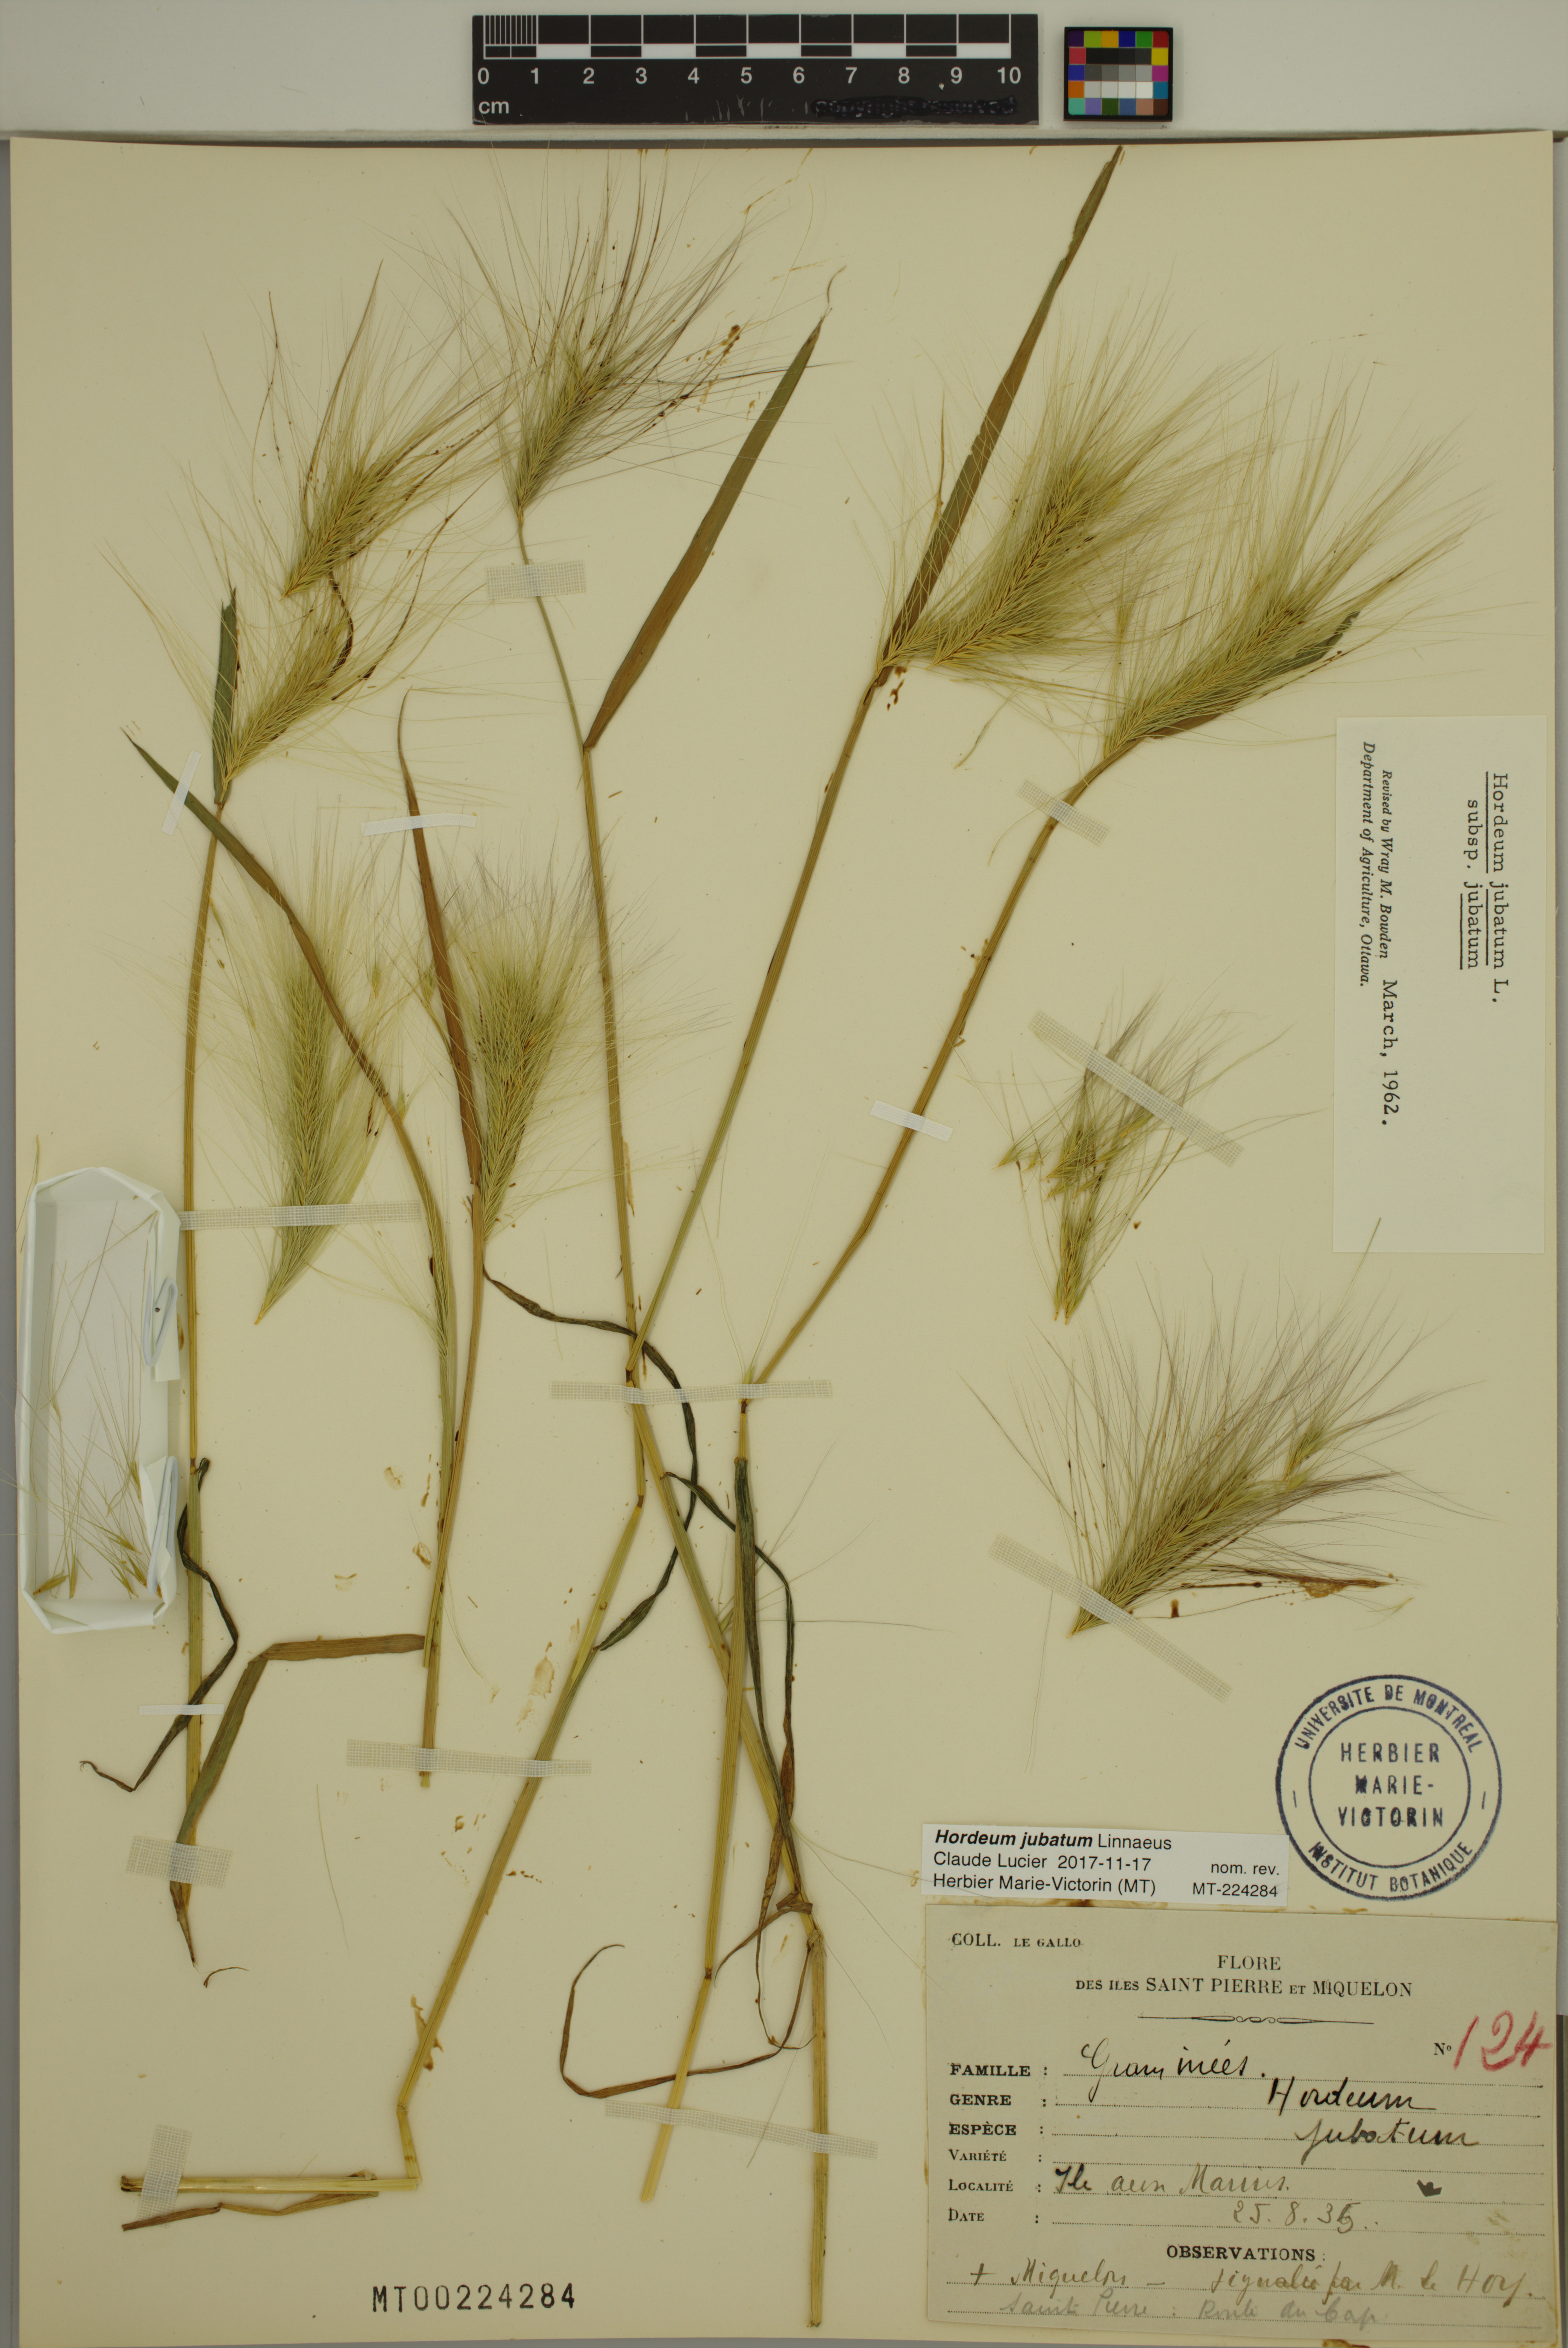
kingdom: Plantae
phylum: Tracheophyta
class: Liliopsida
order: Poales
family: Poaceae
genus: Hordeum
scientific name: Hordeum jubatum
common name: Foxtail barley
